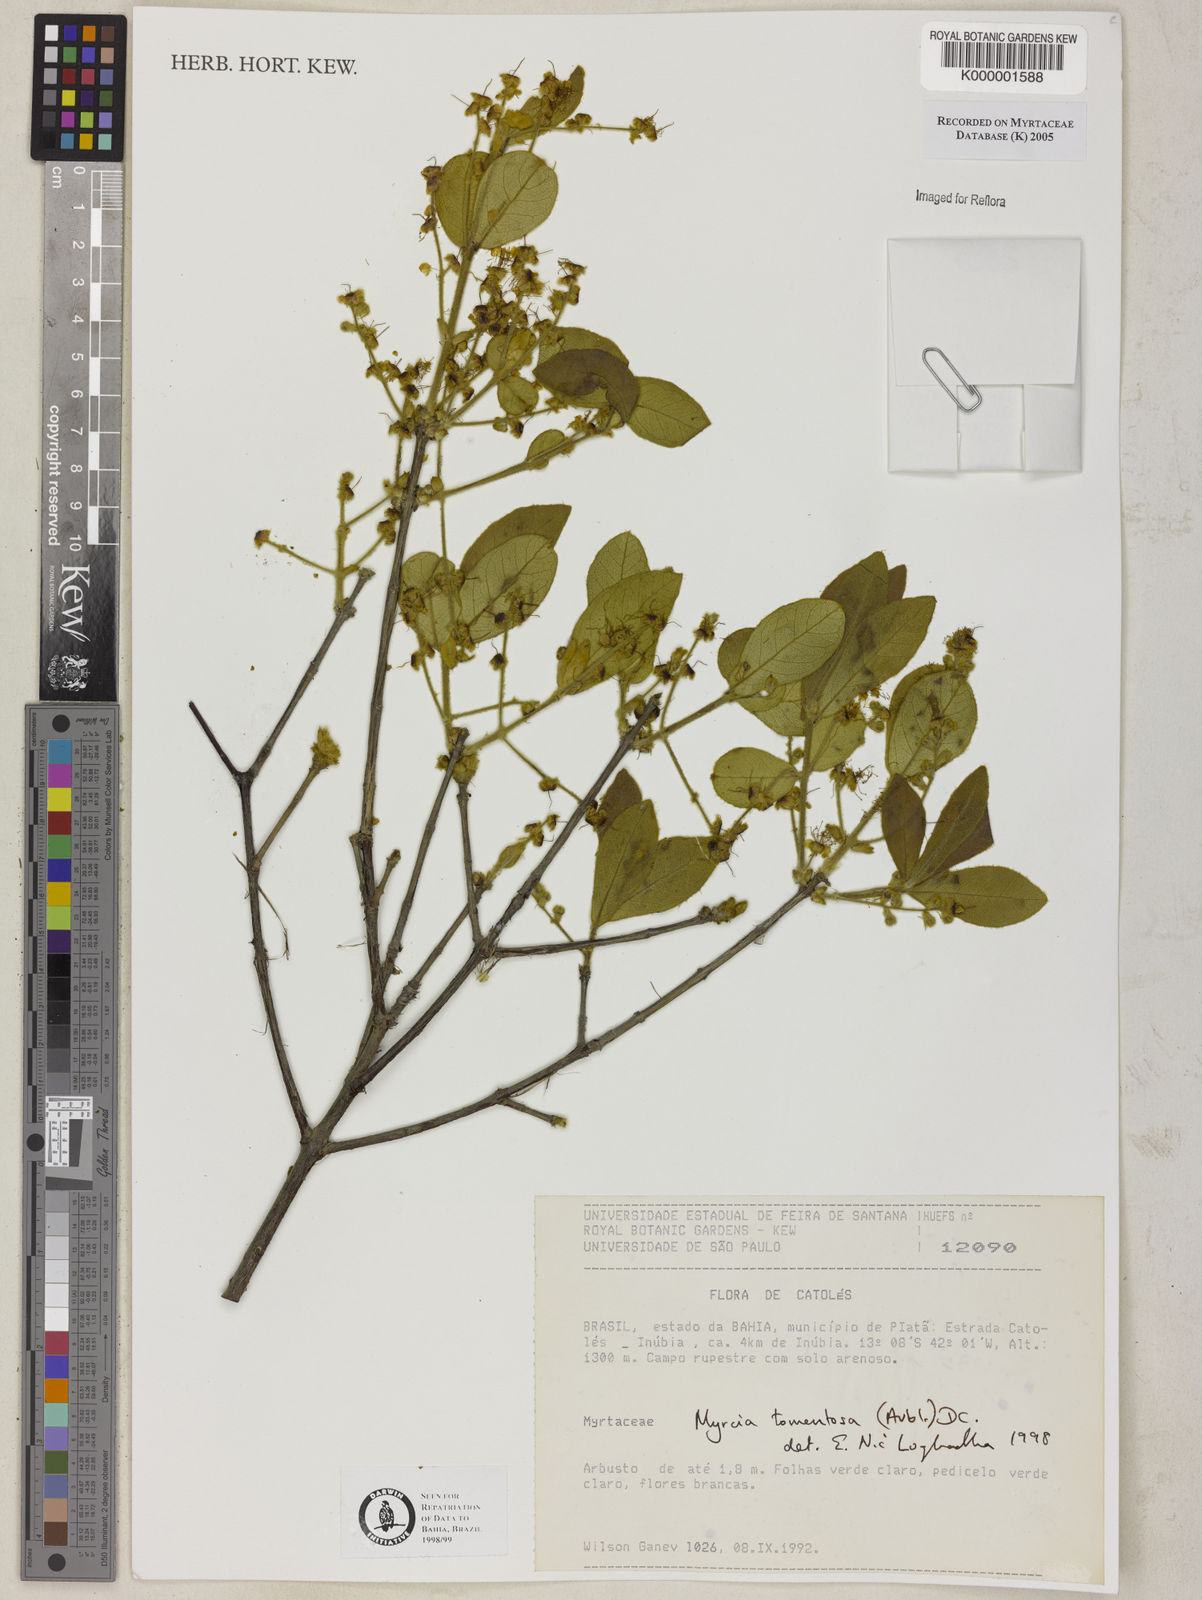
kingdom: Plantae
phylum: Tracheophyta
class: Magnoliopsida
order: Myrtales
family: Myrtaceae
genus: Myrcia
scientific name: Myrcia tomentosa
